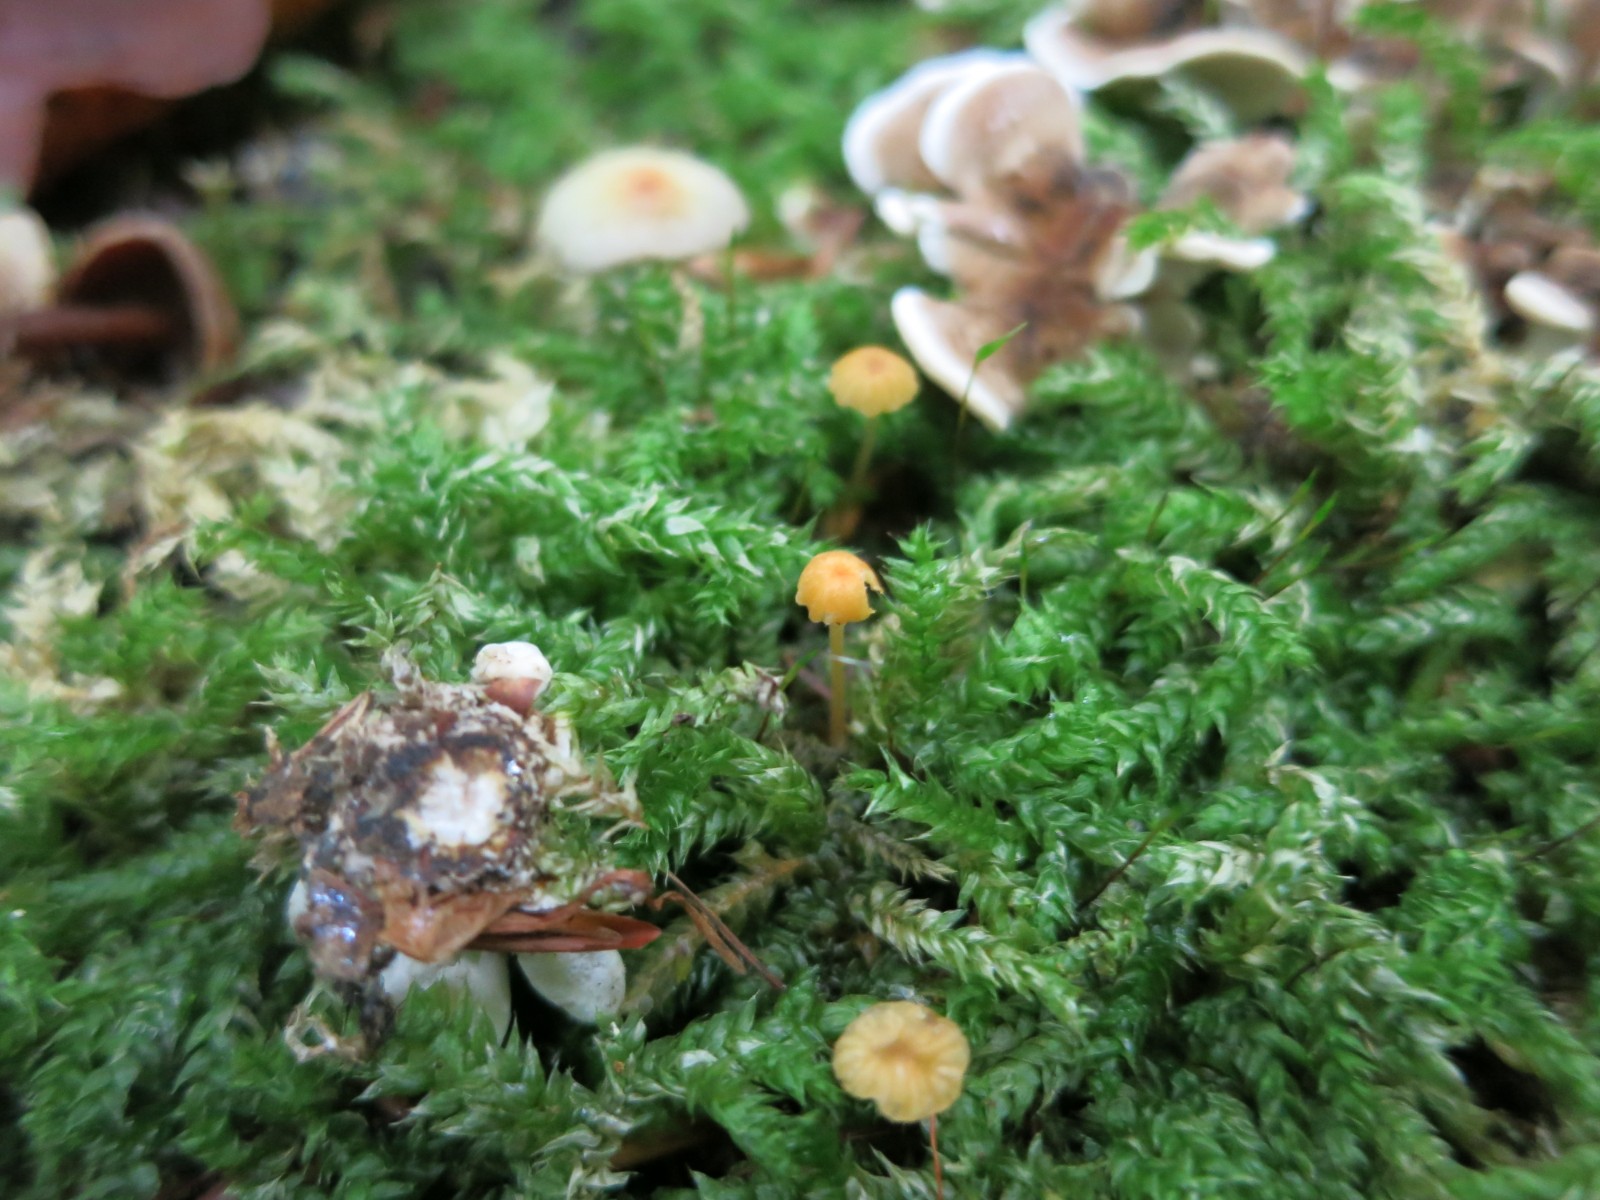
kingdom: Fungi
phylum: Basidiomycota
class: Agaricomycetes
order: Hymenochaetales
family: Rickenellaceae
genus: Rickenella
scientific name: Rickenella fibula
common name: orange mosnavlehat
